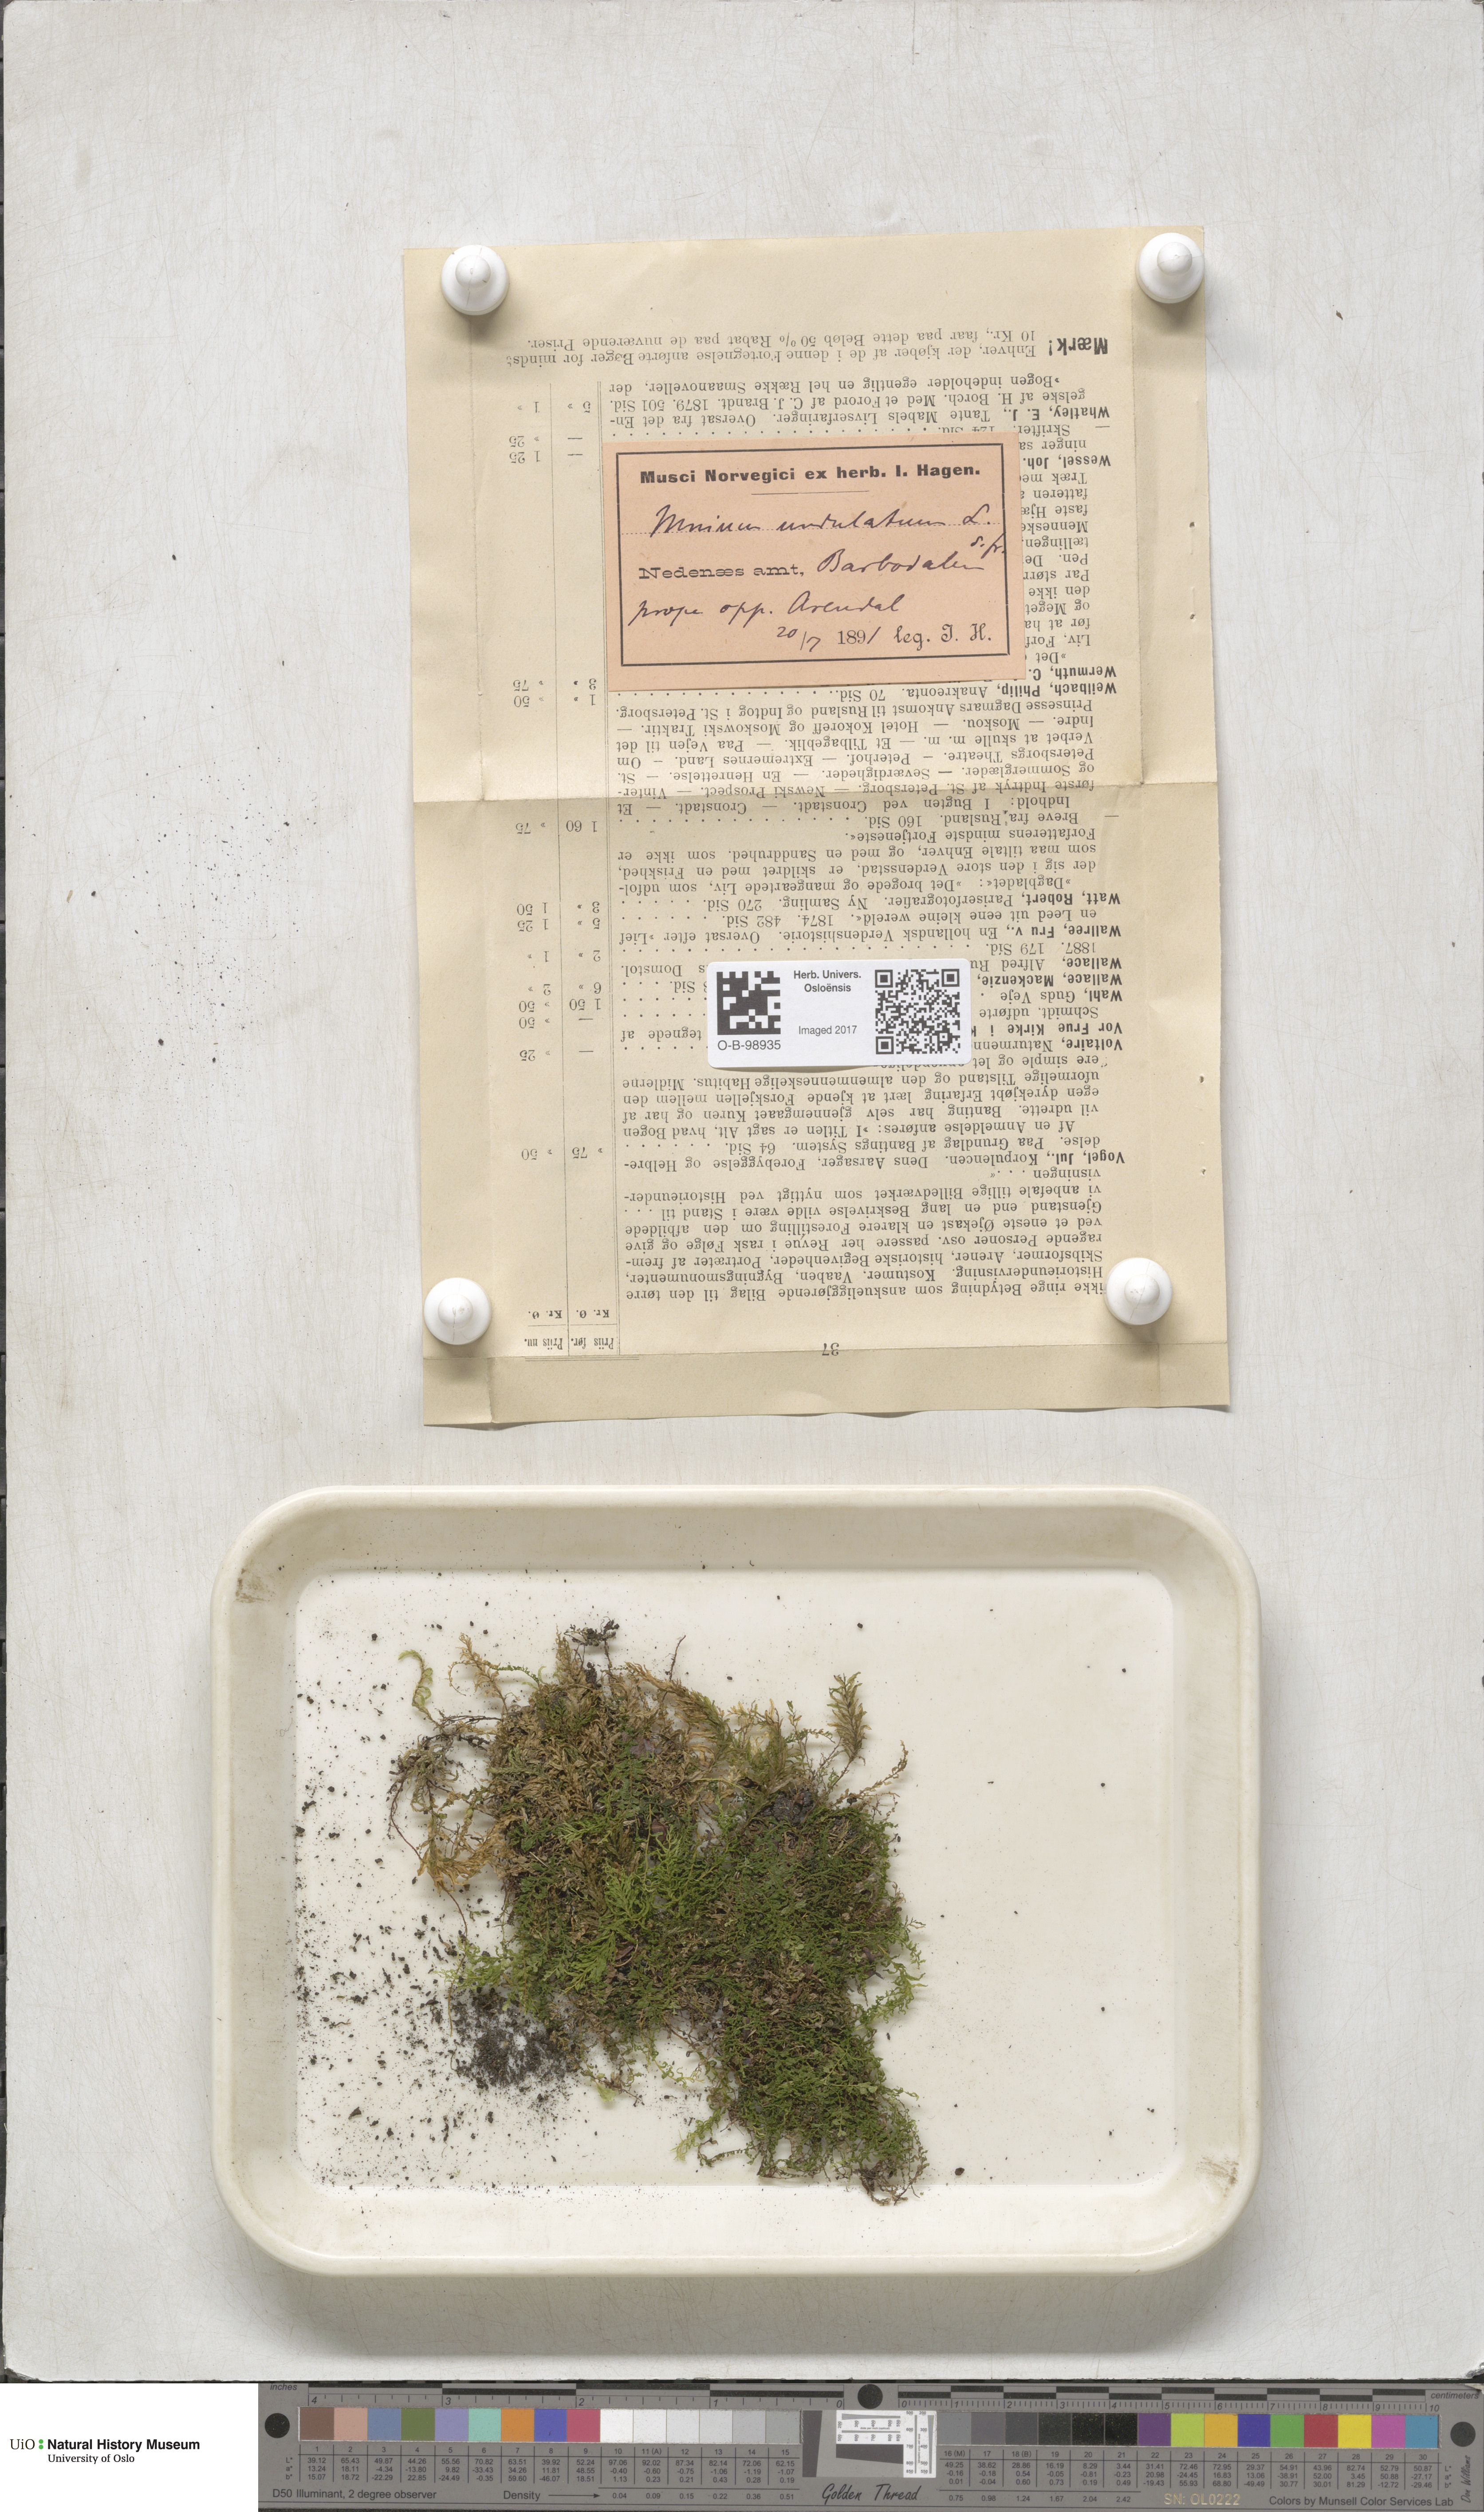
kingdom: Plantae
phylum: Bryophyta
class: Bryopsida
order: Bryales
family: Mniaceae
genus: Plagiomnium
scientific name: Plagiomnium undulatum
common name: Hart's-tongue thyme-moss
